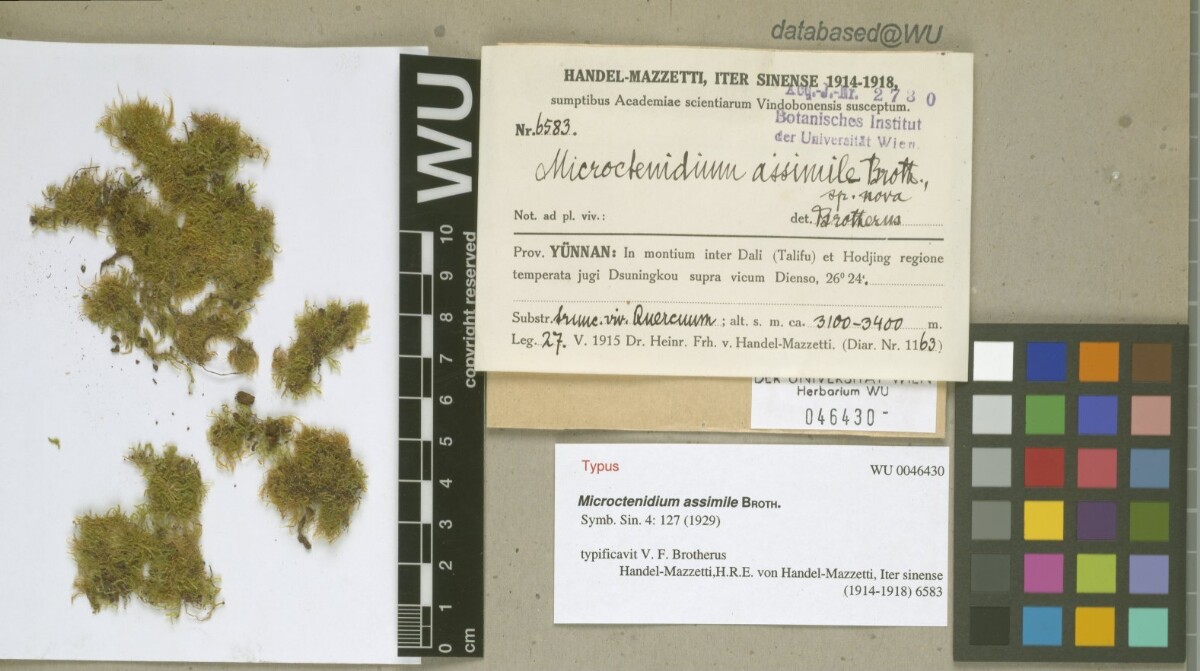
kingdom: Plantae
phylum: Bryophyta
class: Bryopsida
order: Hypnales
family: Hypnaceae
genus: Microctenidium
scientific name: Microctenidium assimile
